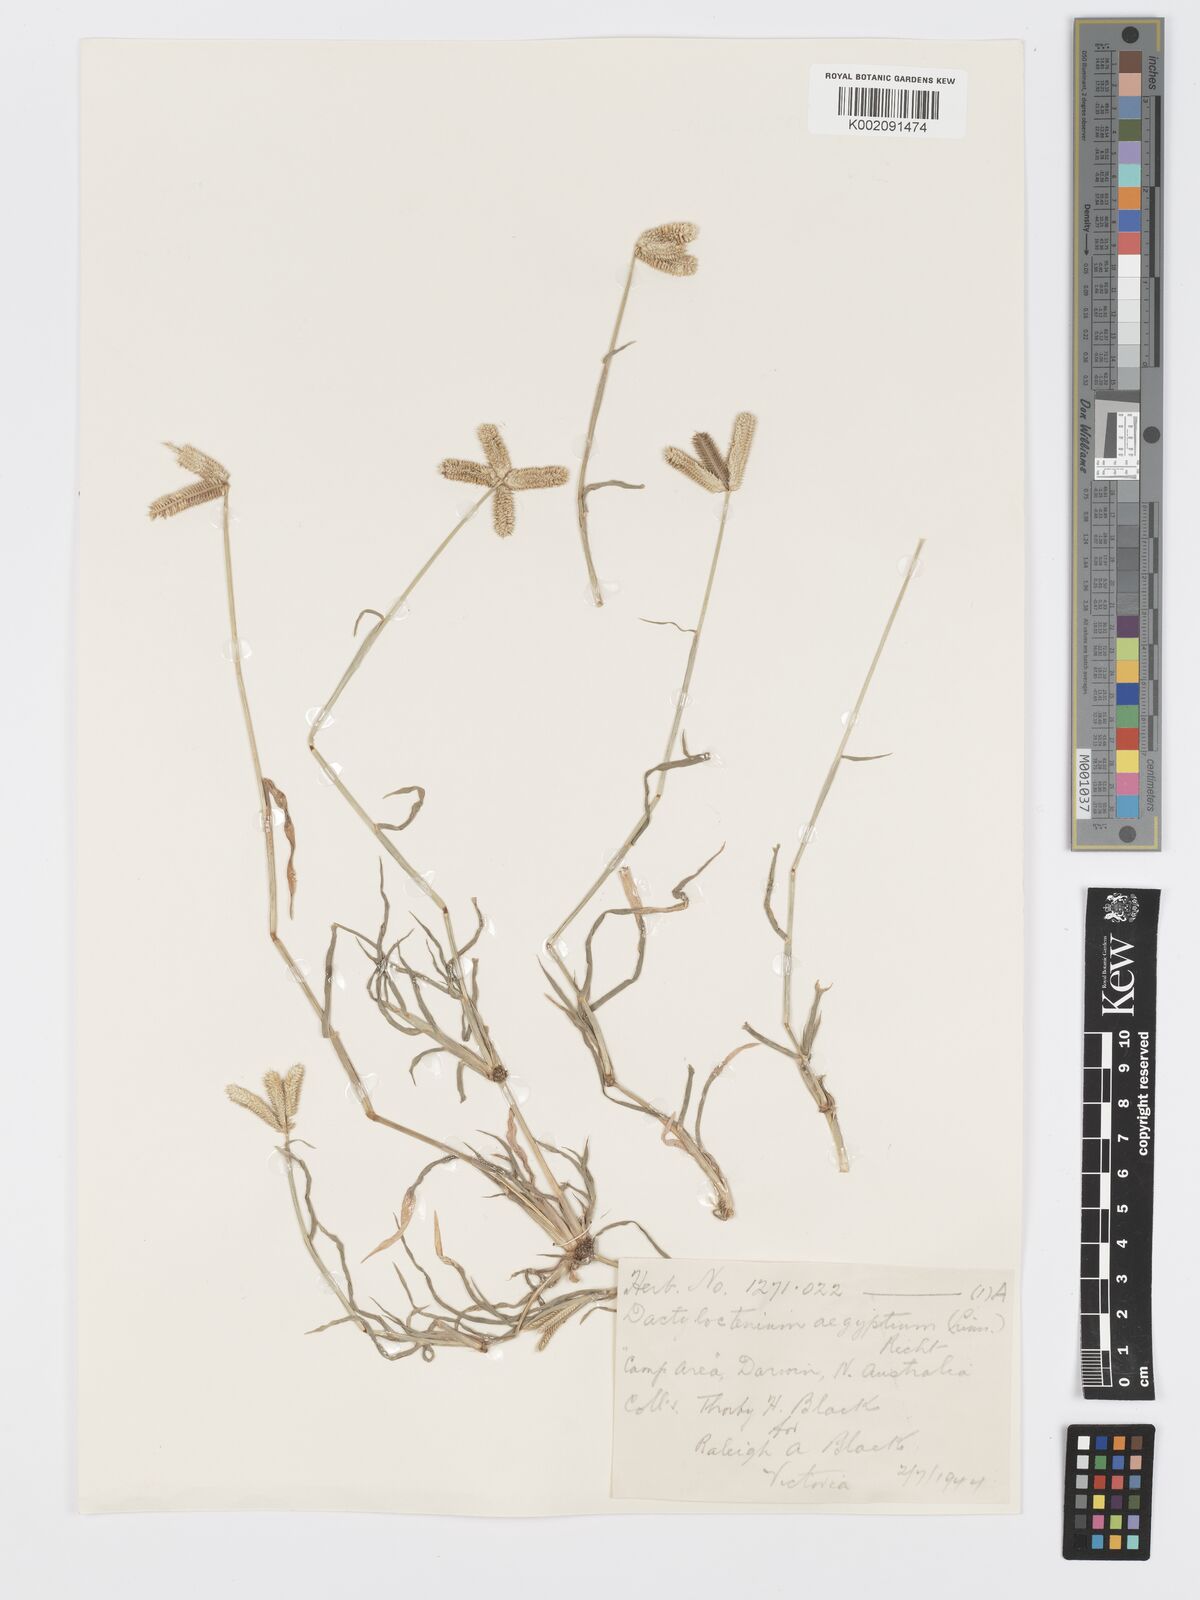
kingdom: Plantae
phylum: Tracheophyta
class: Liliopsida
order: Poales
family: Poaceae
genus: Dactyloctenium
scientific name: Dactyloctenium aegyptium
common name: Egyptian grass
